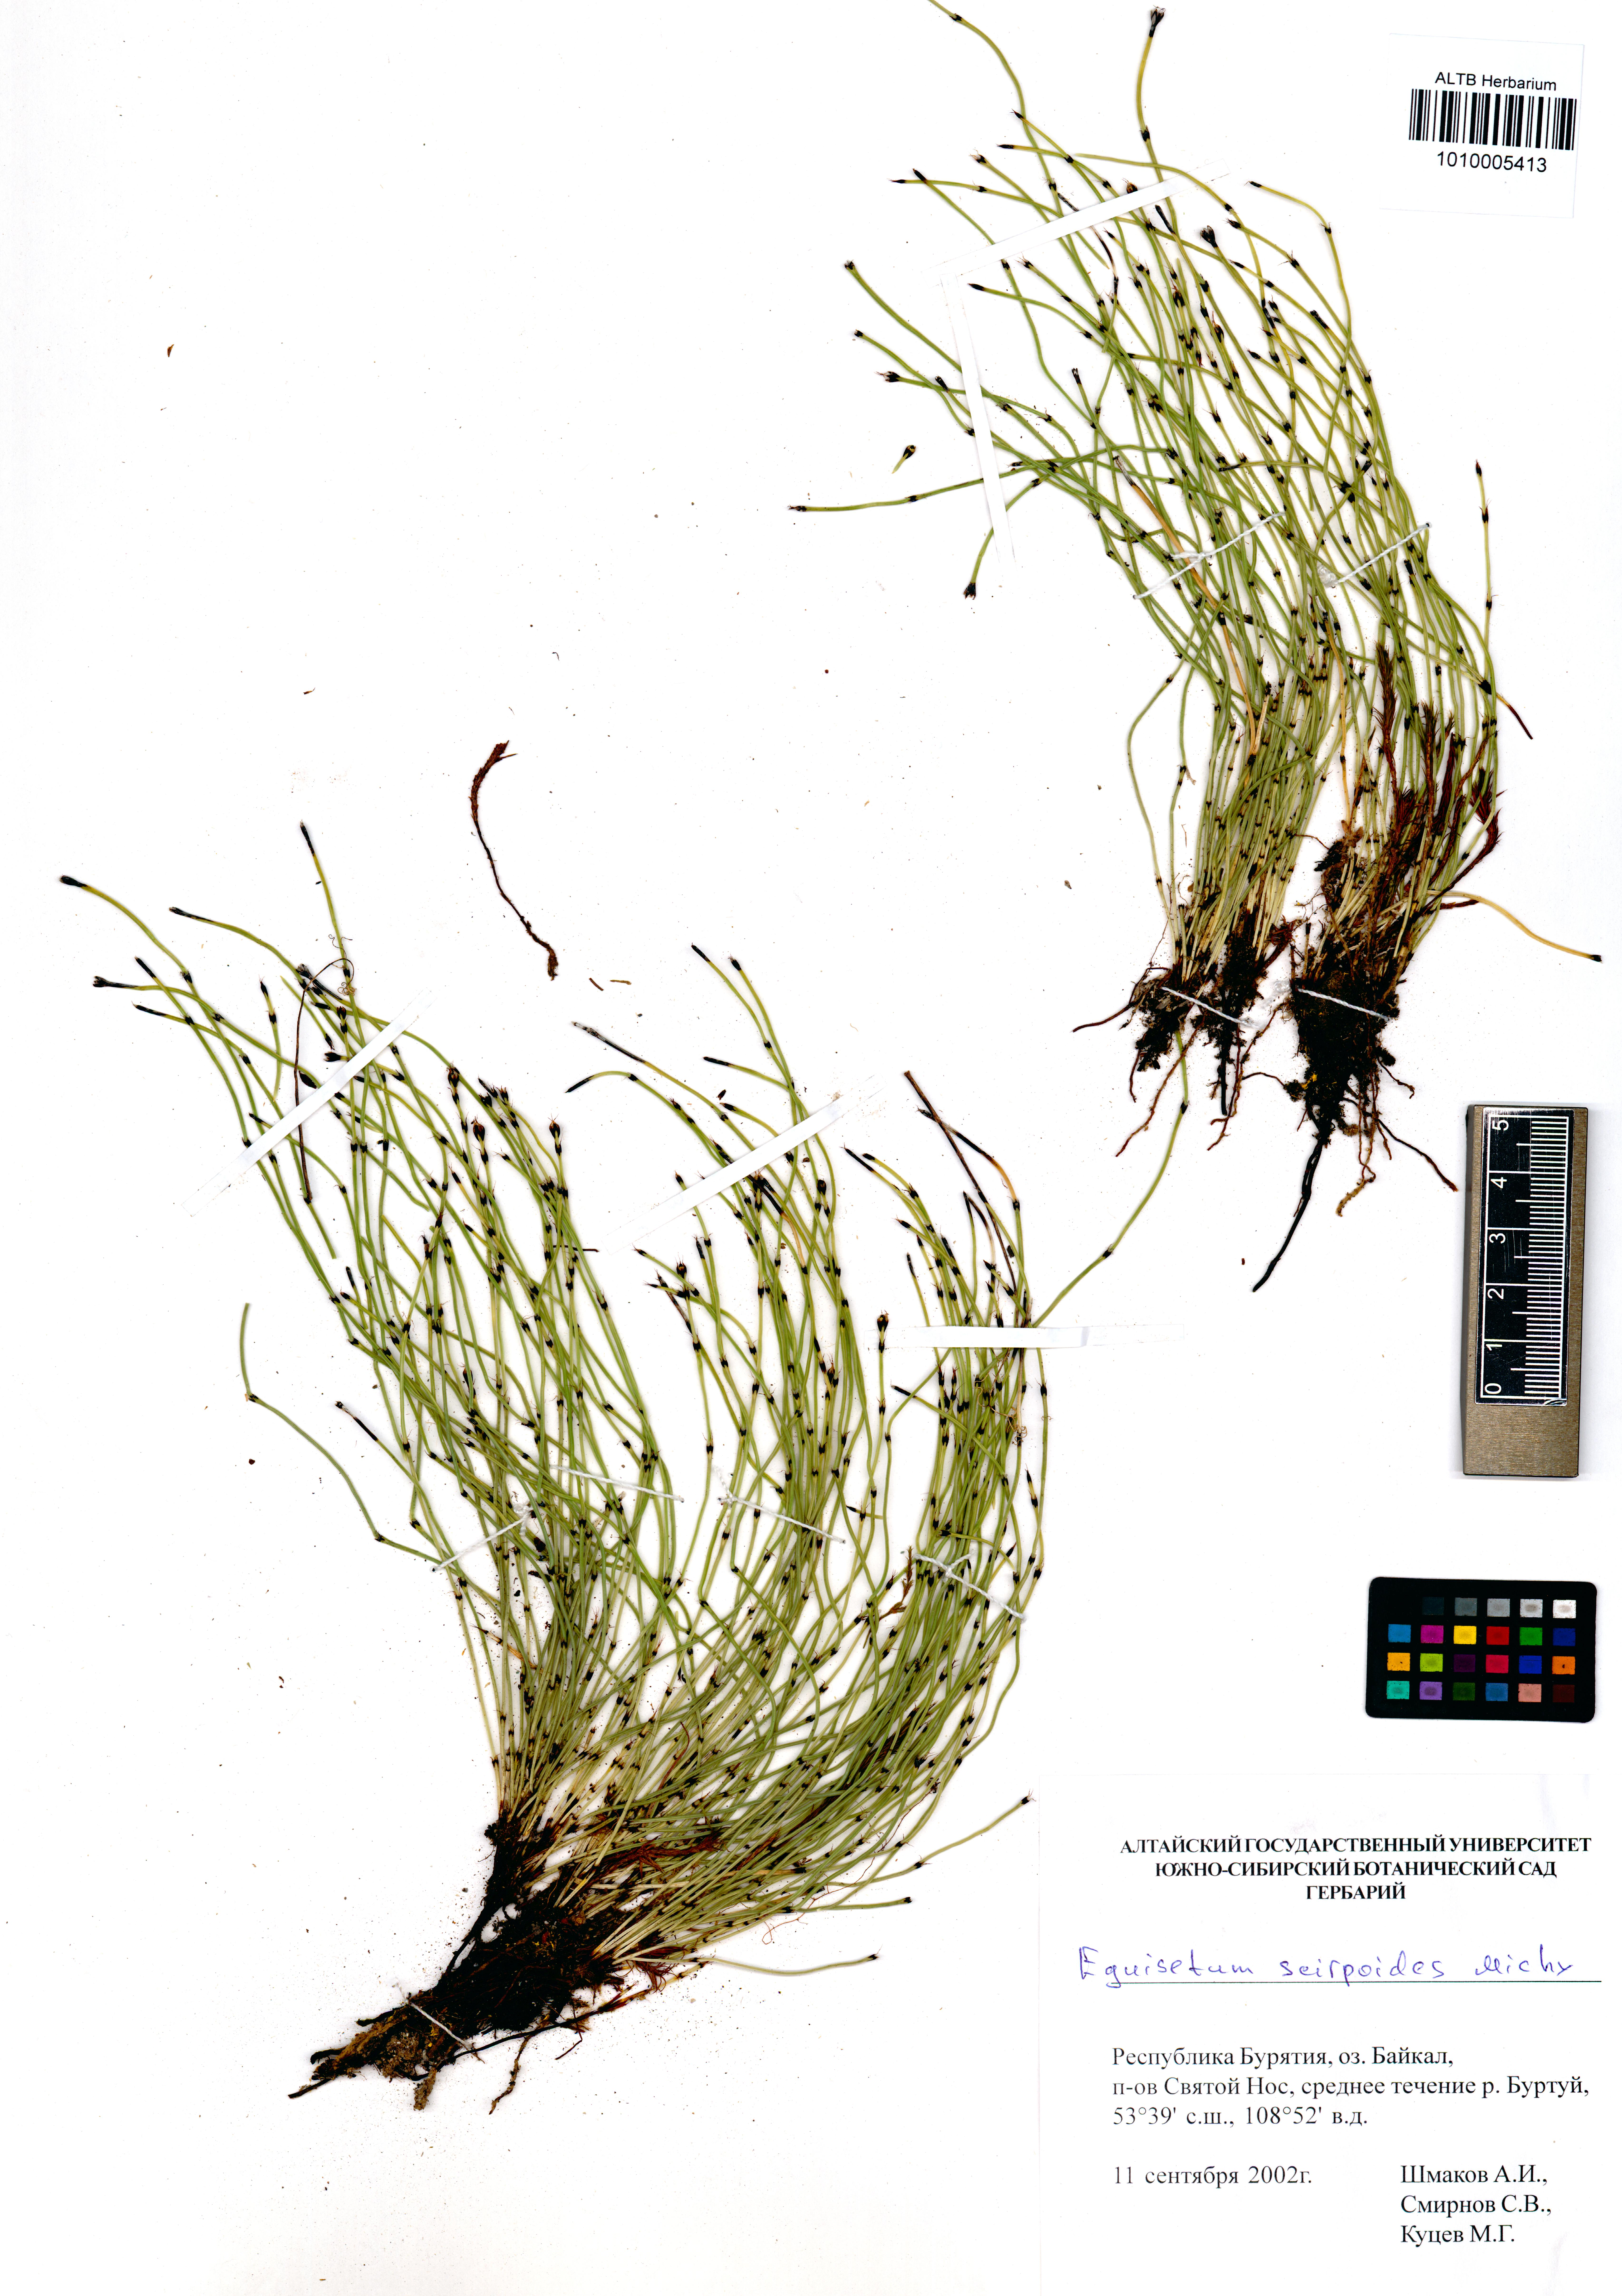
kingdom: Plantae
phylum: Tracheophyta
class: Polypodiopsida
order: Equisetales
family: Equisetaceae
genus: Equisetum
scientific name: Equisetum scirpoides
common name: Delicate horsetail
